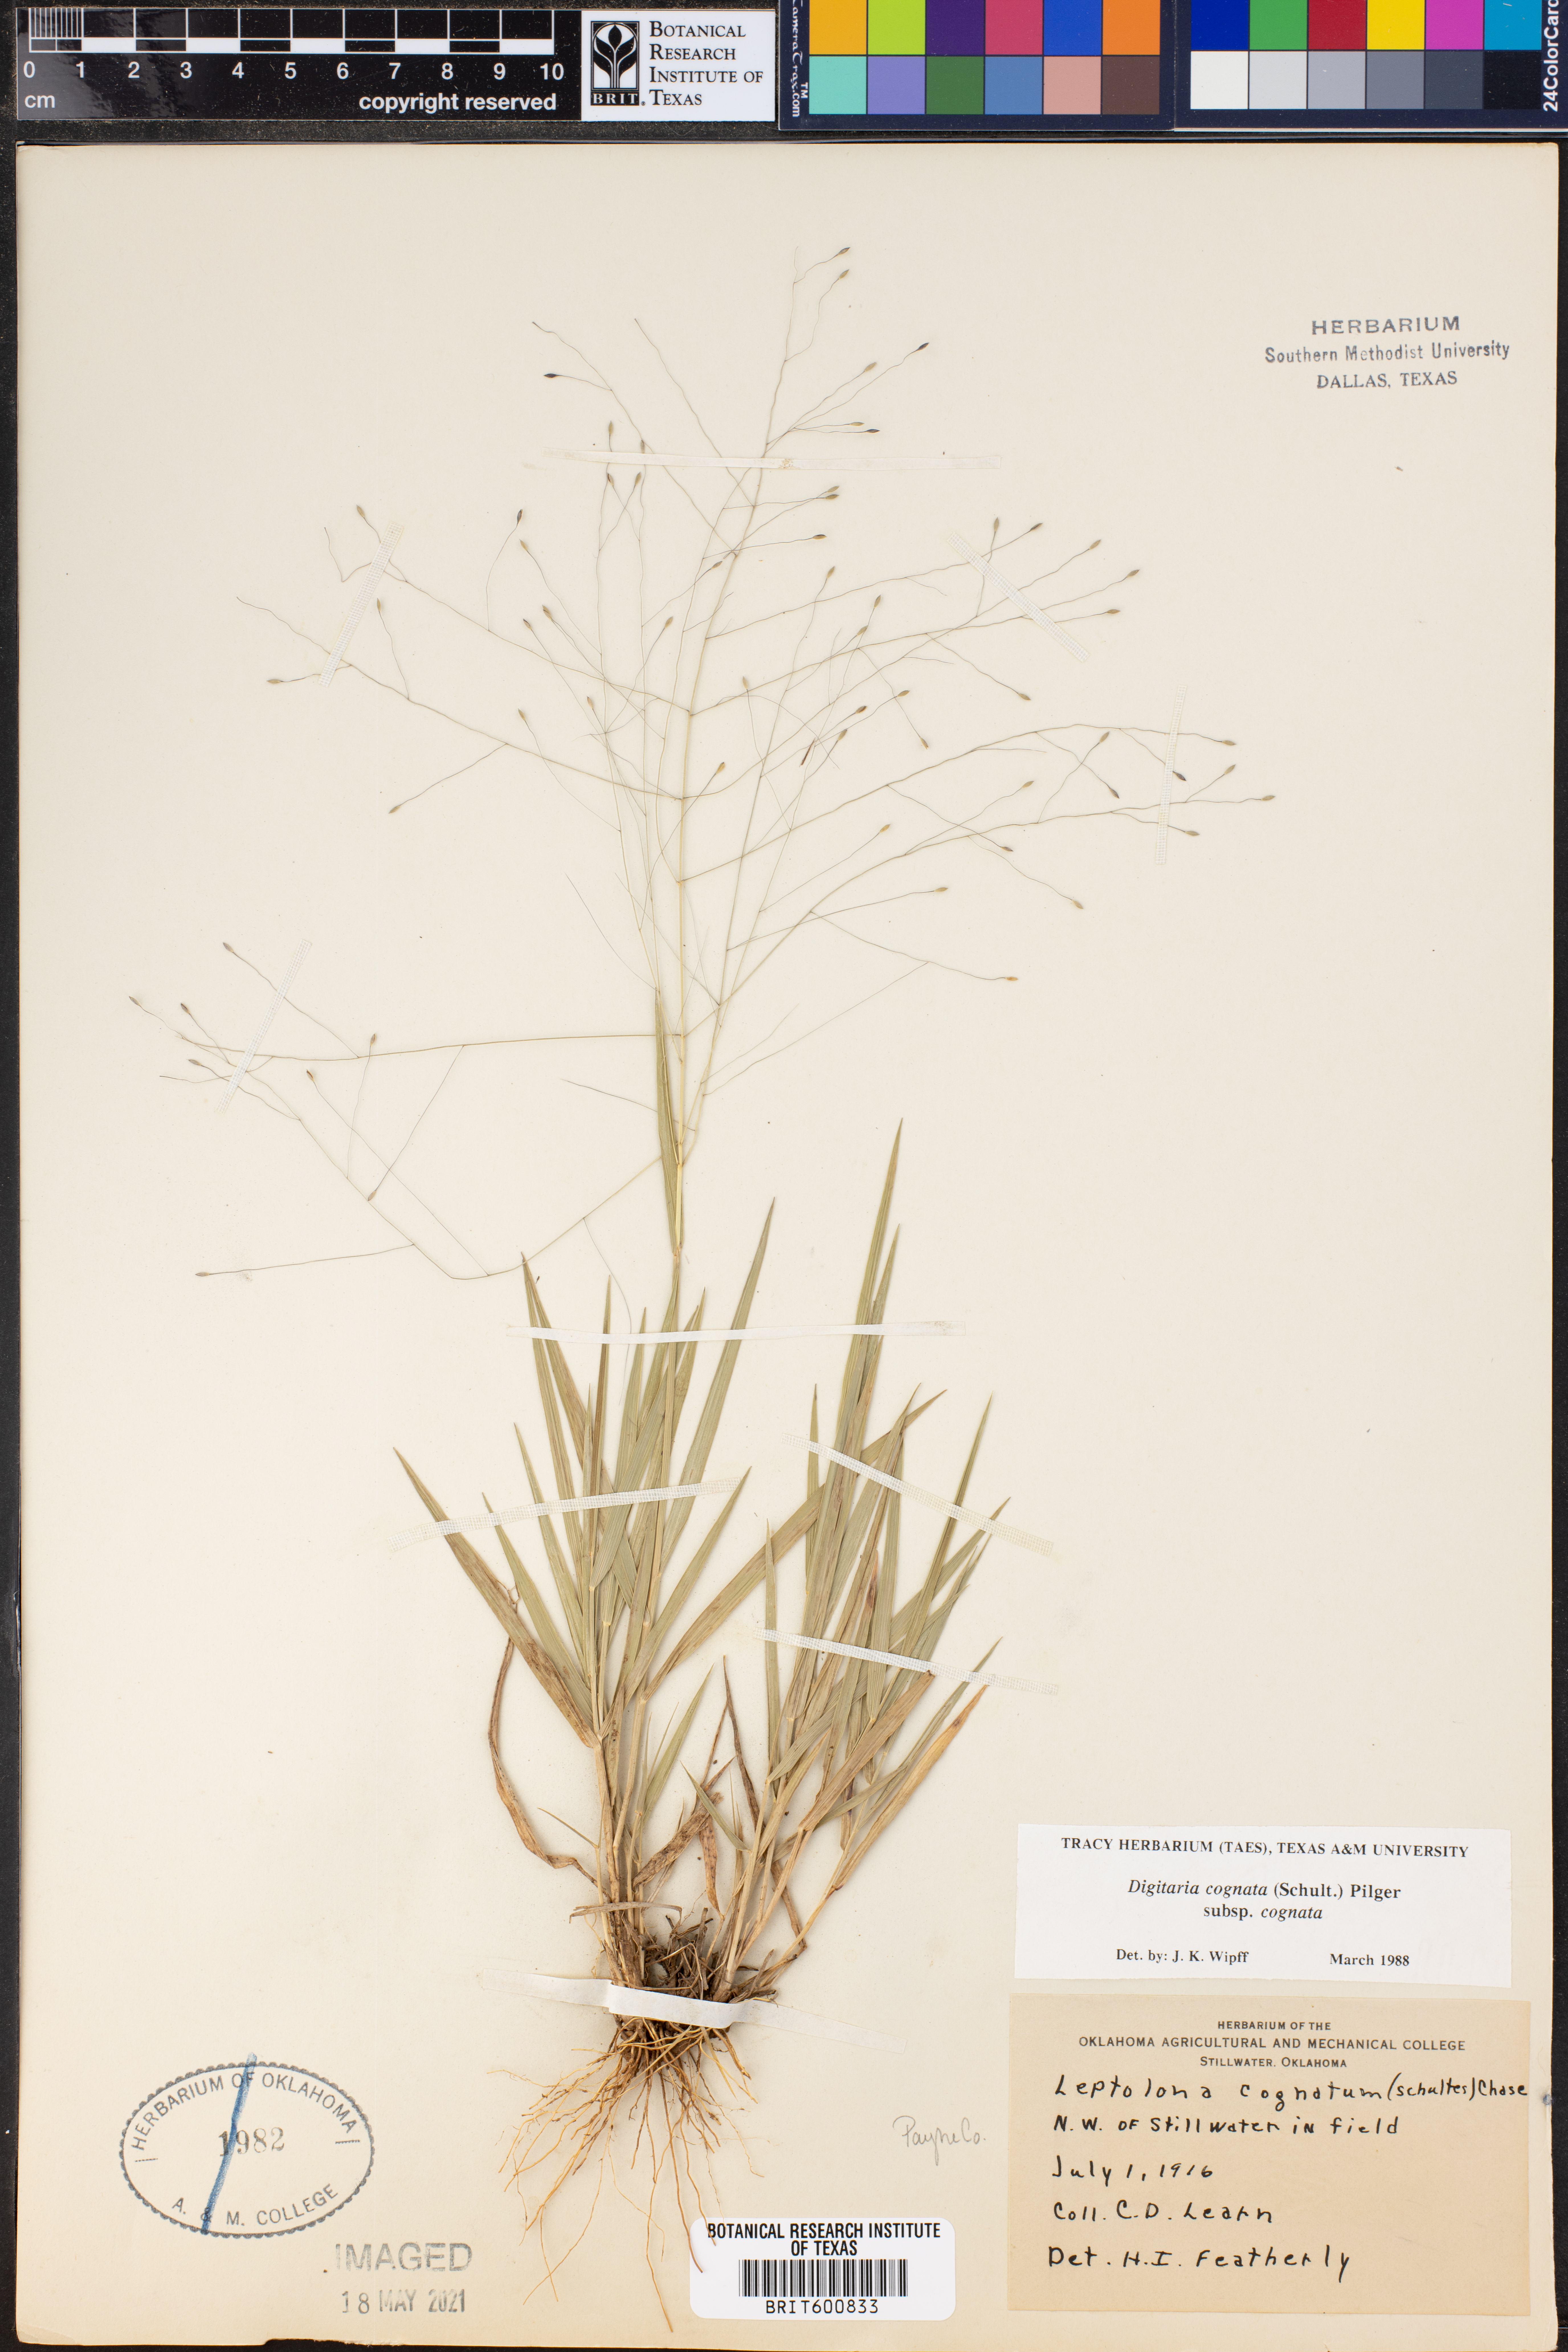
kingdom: Plantae
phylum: Tracheophyta
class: Liliopsida
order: Poales
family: Poaceae
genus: Digitaria
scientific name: Digitaria cognata
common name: Fall witchgrass
